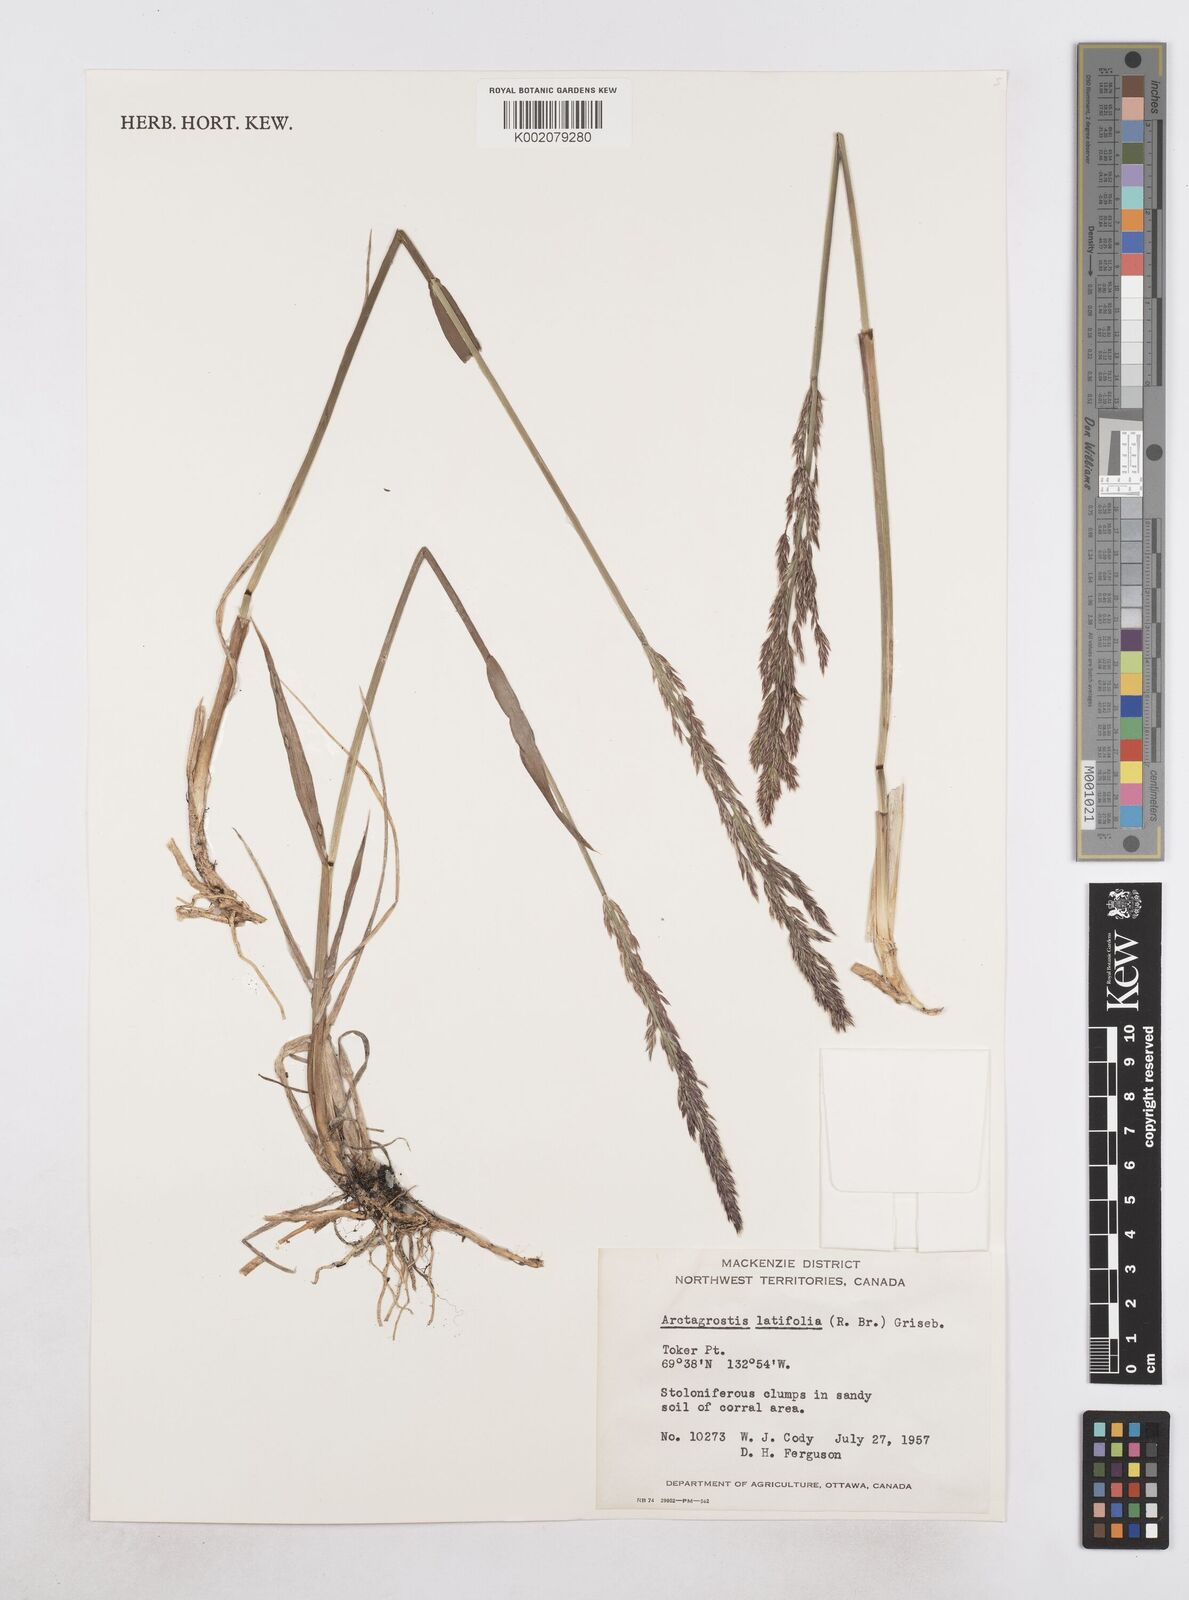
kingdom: Plantae
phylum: Tracheophyta
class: Liliopsida
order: Poales
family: Poaceae
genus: Arctagrostis
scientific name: Arctagrostis latifolia
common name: Arctic grass
